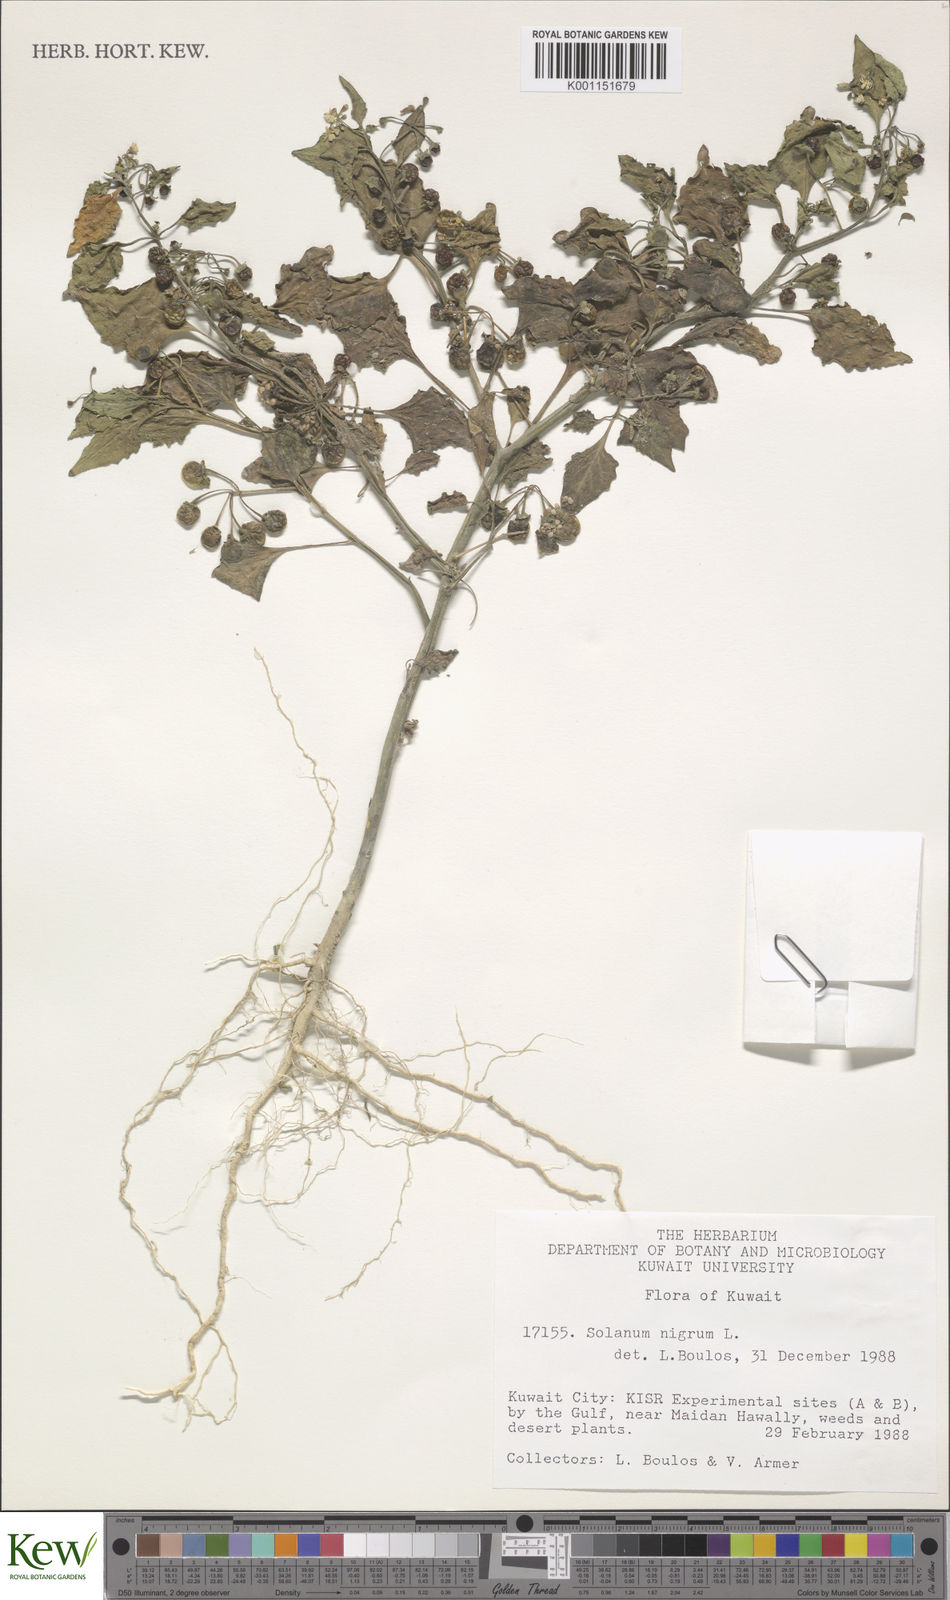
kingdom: Plantae
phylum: Tracheophyta
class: Magnoliopsida
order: Solanales
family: Solanaceae
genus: Solanum
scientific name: Solanum nigrum
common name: Black nightshade
